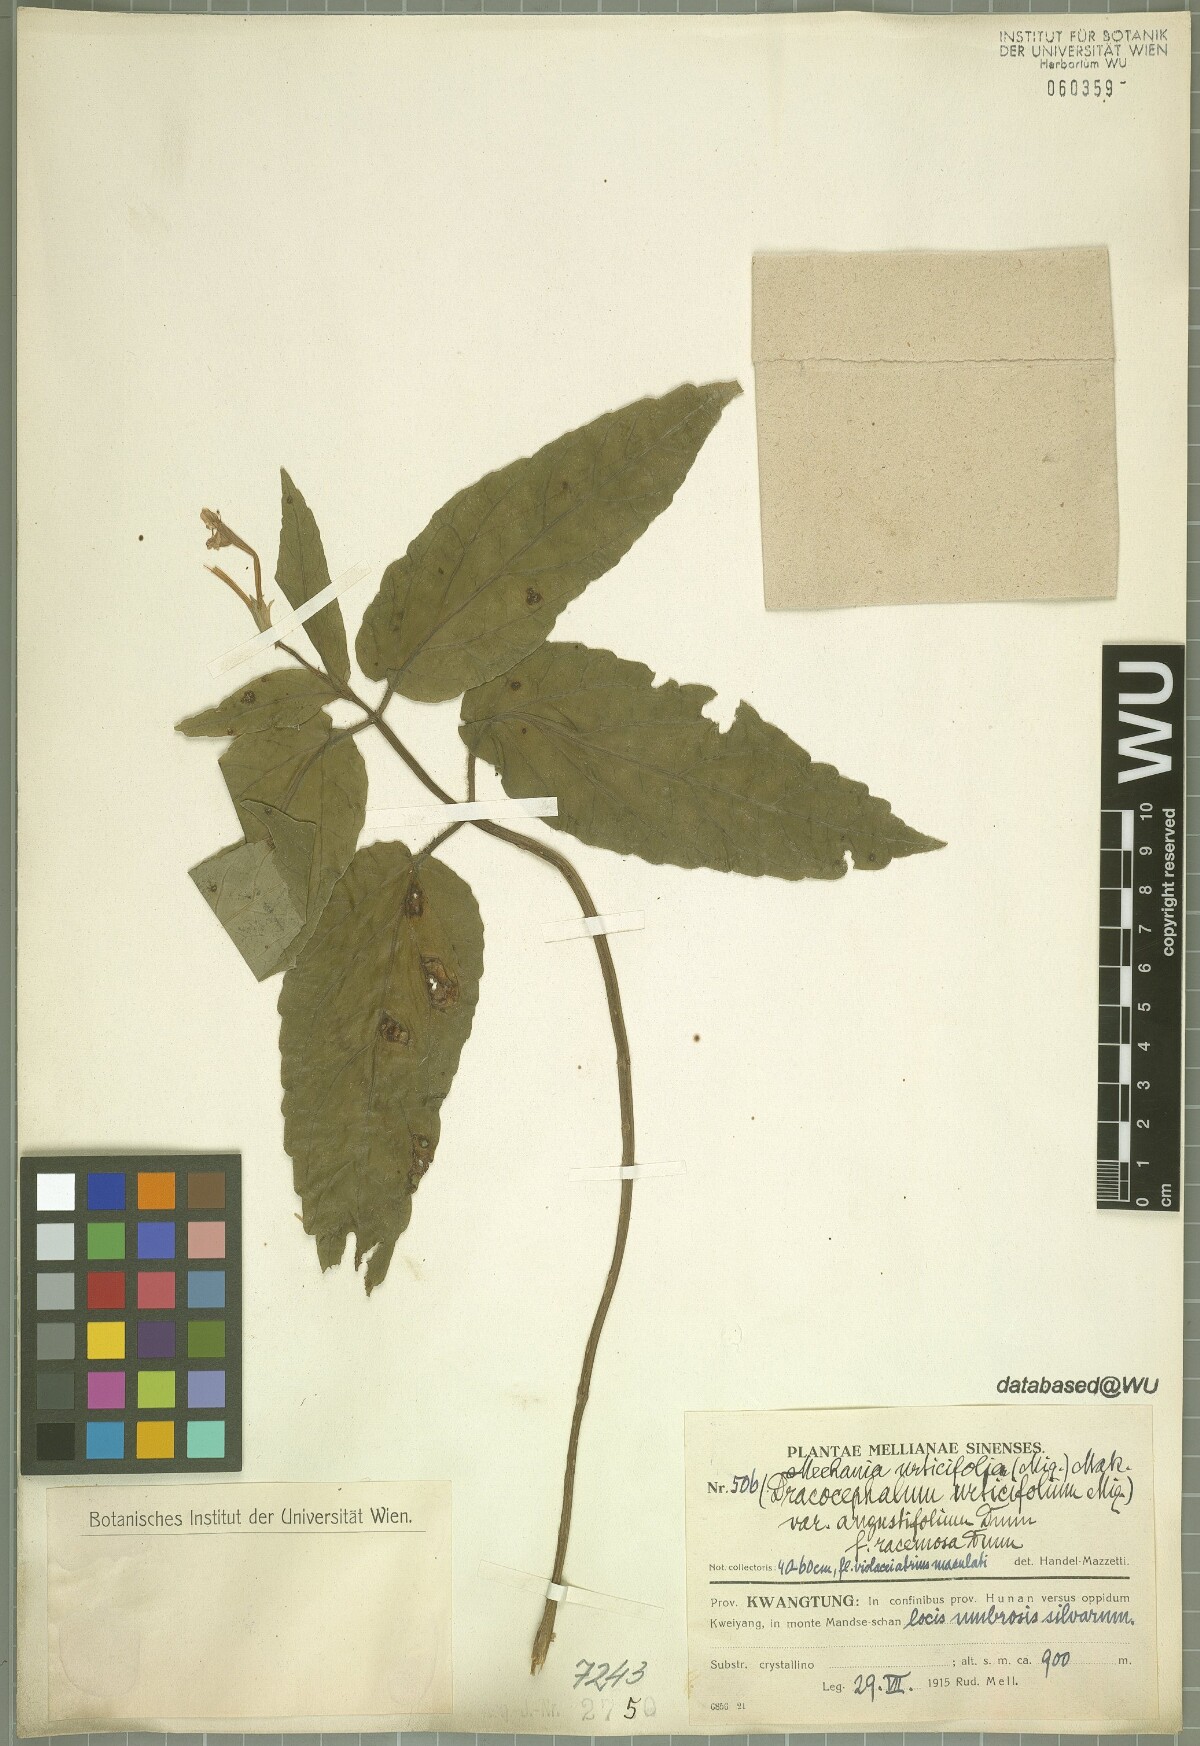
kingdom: Plantae
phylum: Tracheophyta
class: Magnoliopsida
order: Lamiales
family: Lamiaceae
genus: Meehania
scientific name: Meehania urticifolia
